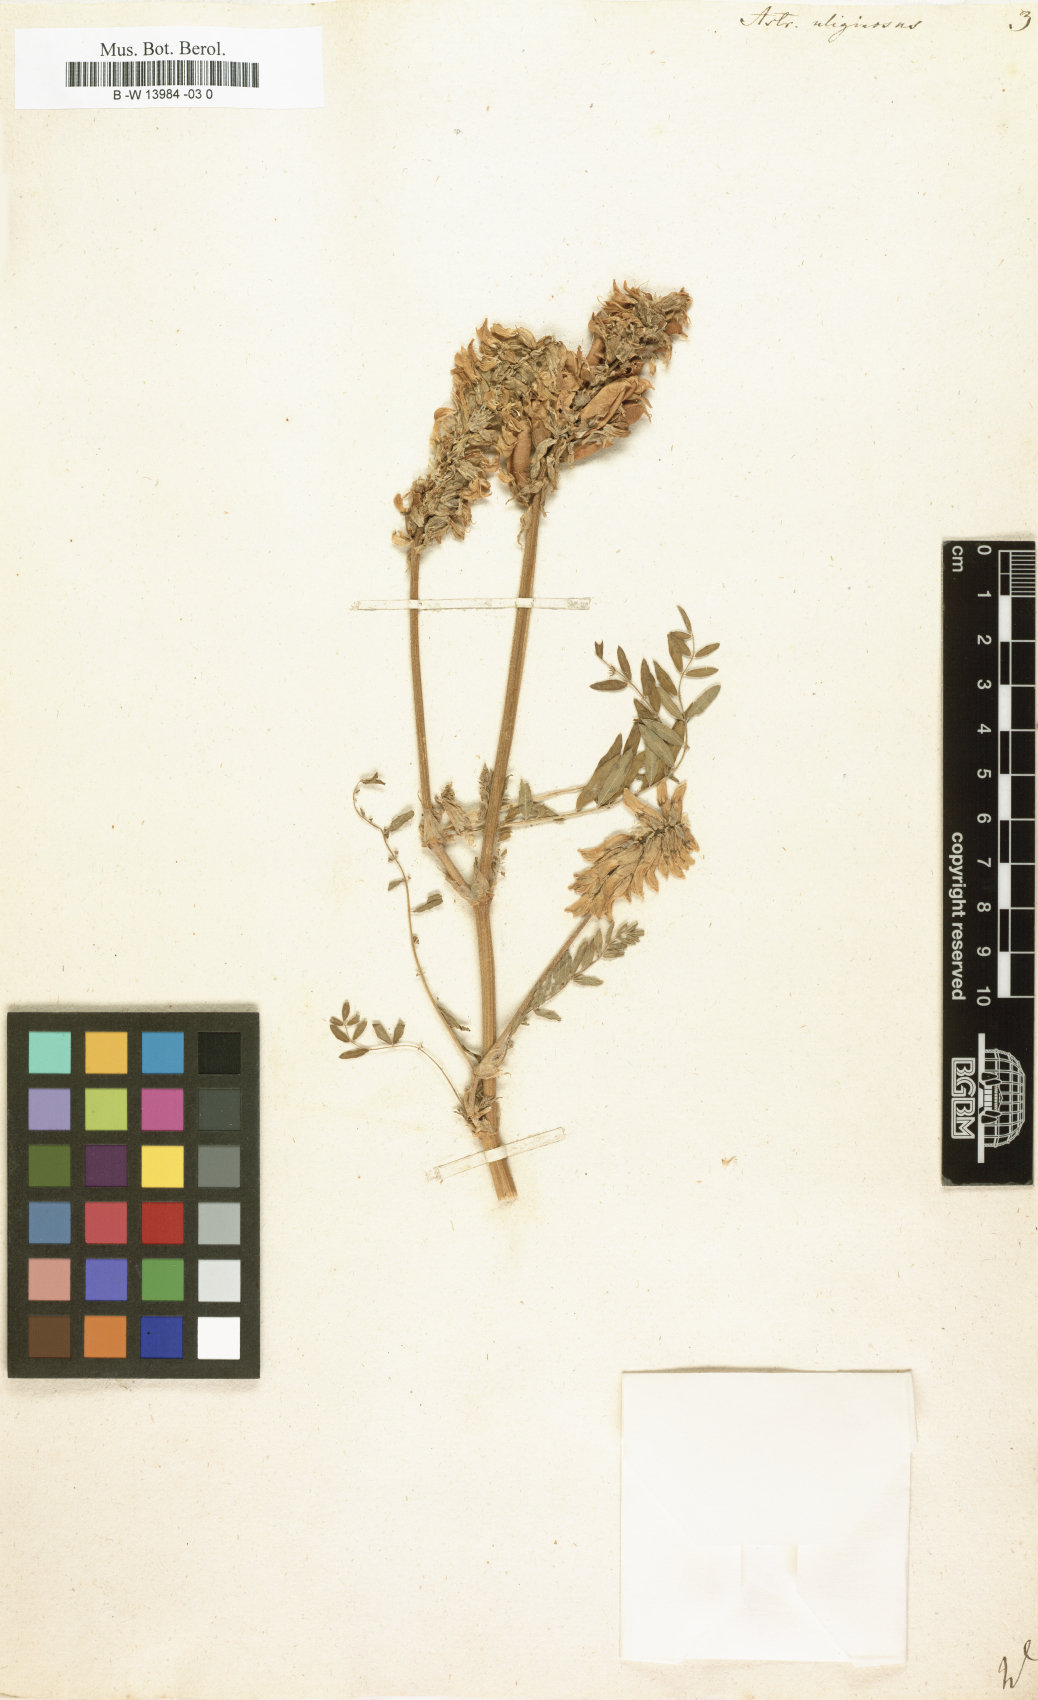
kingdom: Plantae
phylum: Tracheophyta
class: Magnoliopsida
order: Fabales
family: Fabaceae
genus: Astragalus
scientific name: Astragalus uliginosus
